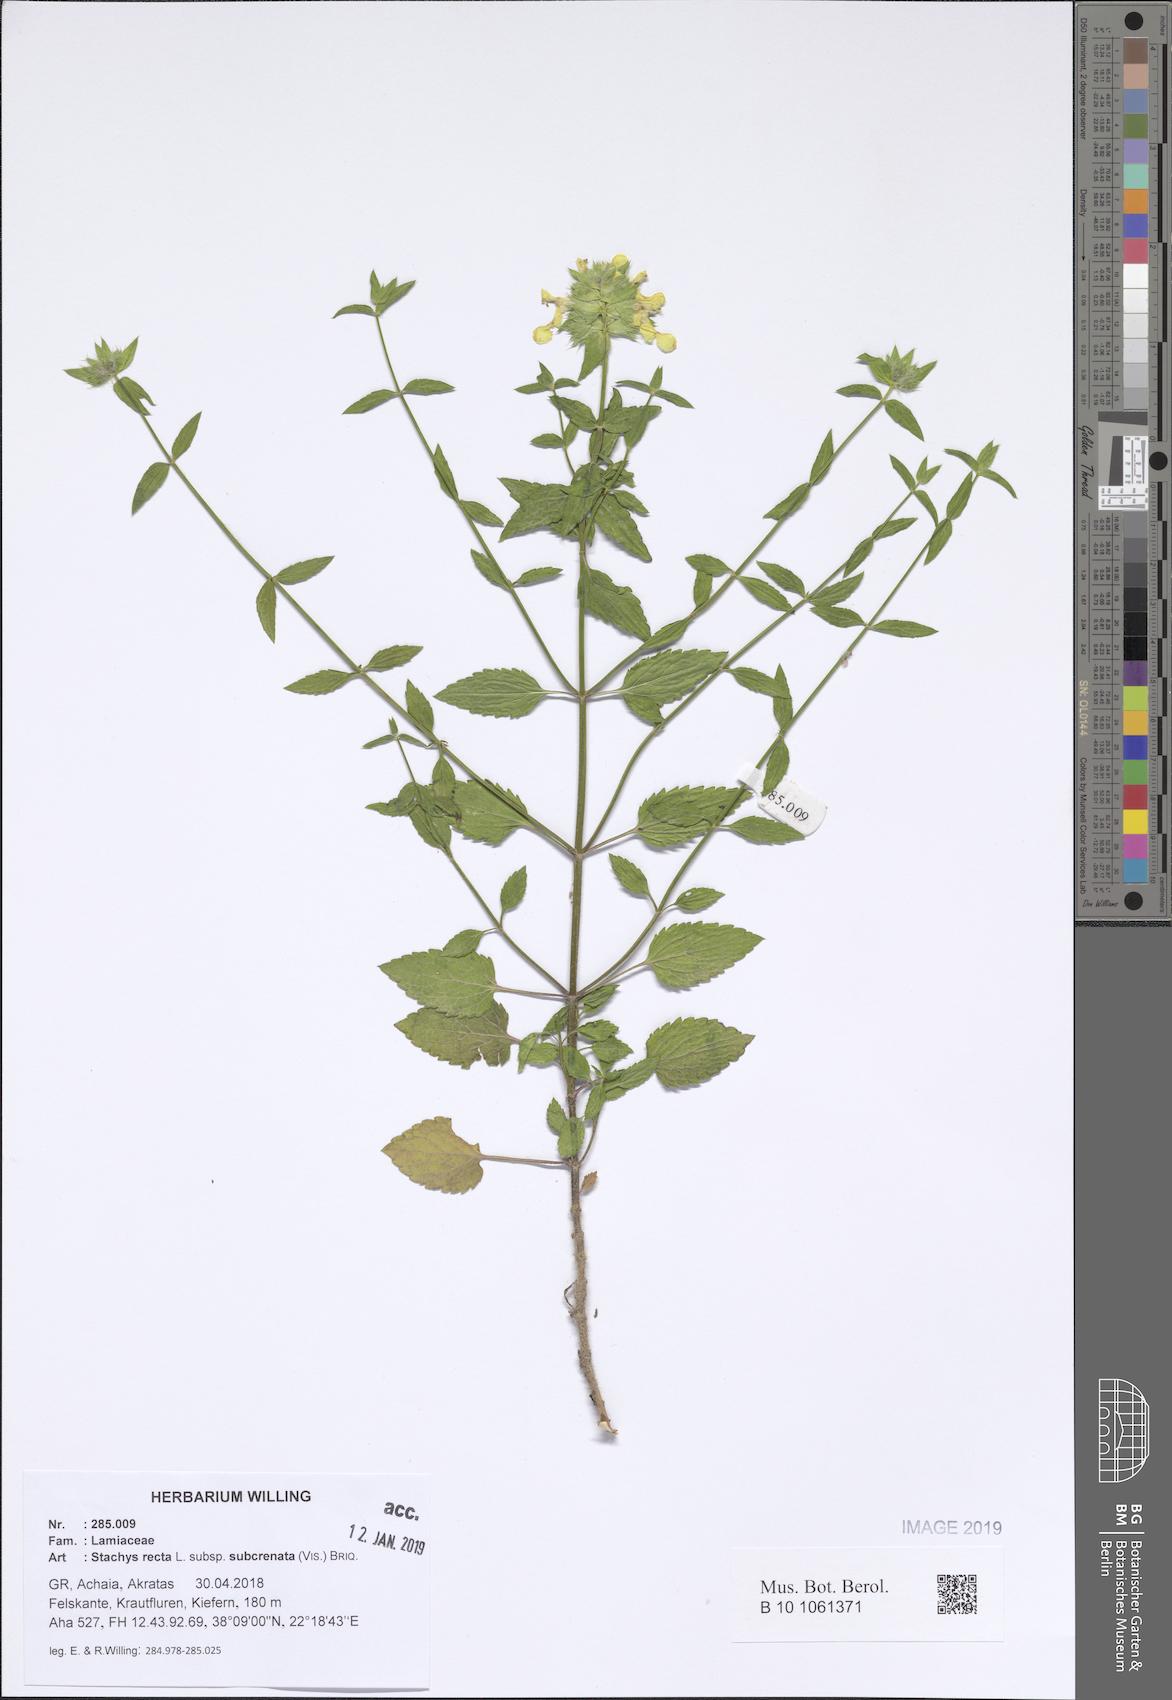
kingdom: Plantae
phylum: Tracheophyta
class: Magnoliopsida
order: Lamiales
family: Lamiaceae
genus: Stachys
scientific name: Stachys recta
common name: Perennial yellow-woundwort
